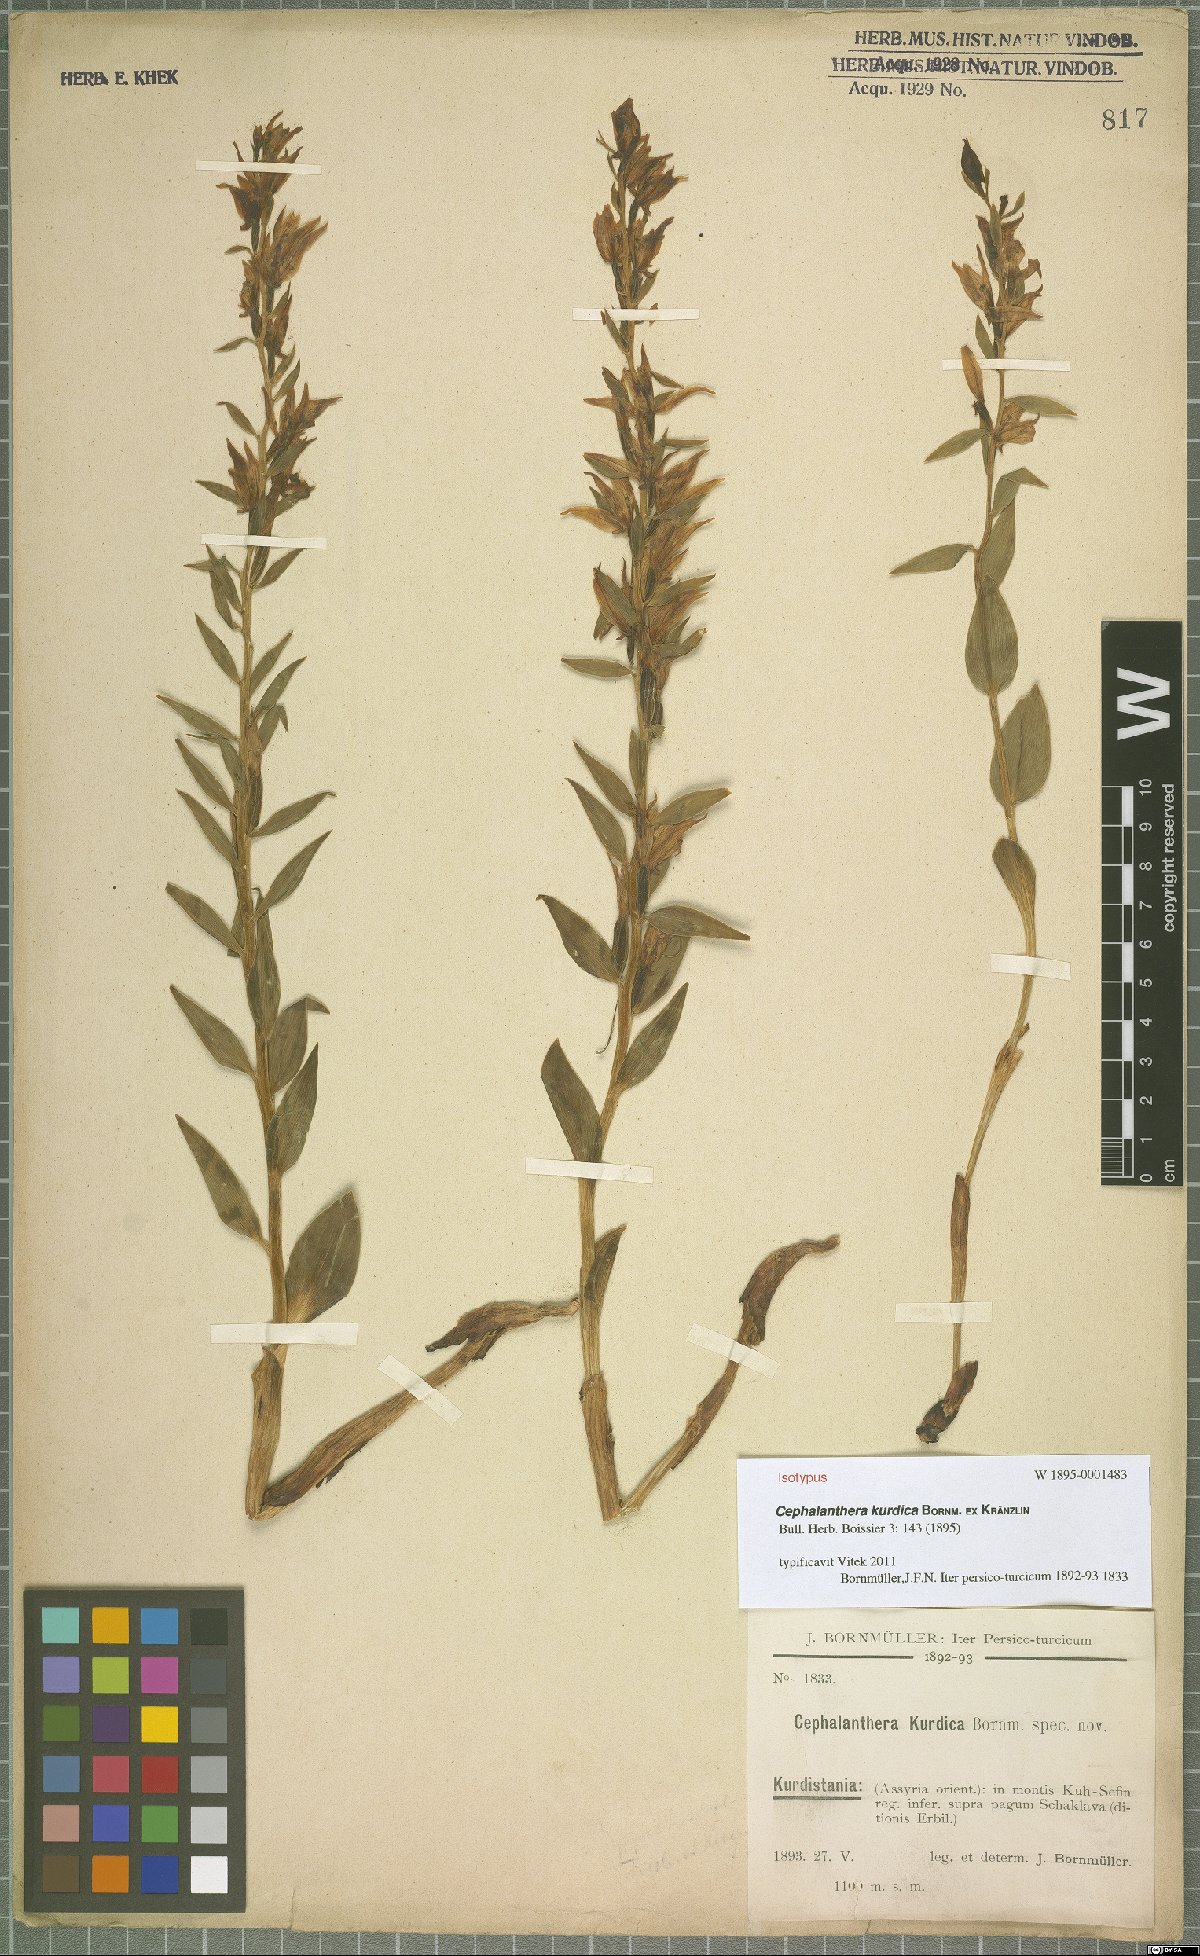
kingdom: Plantae
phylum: Tracheophyta
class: Liliopsida
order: Asparagales
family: Orchidaceae
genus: Cephalanthera
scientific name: Cephalanthera kurdica
